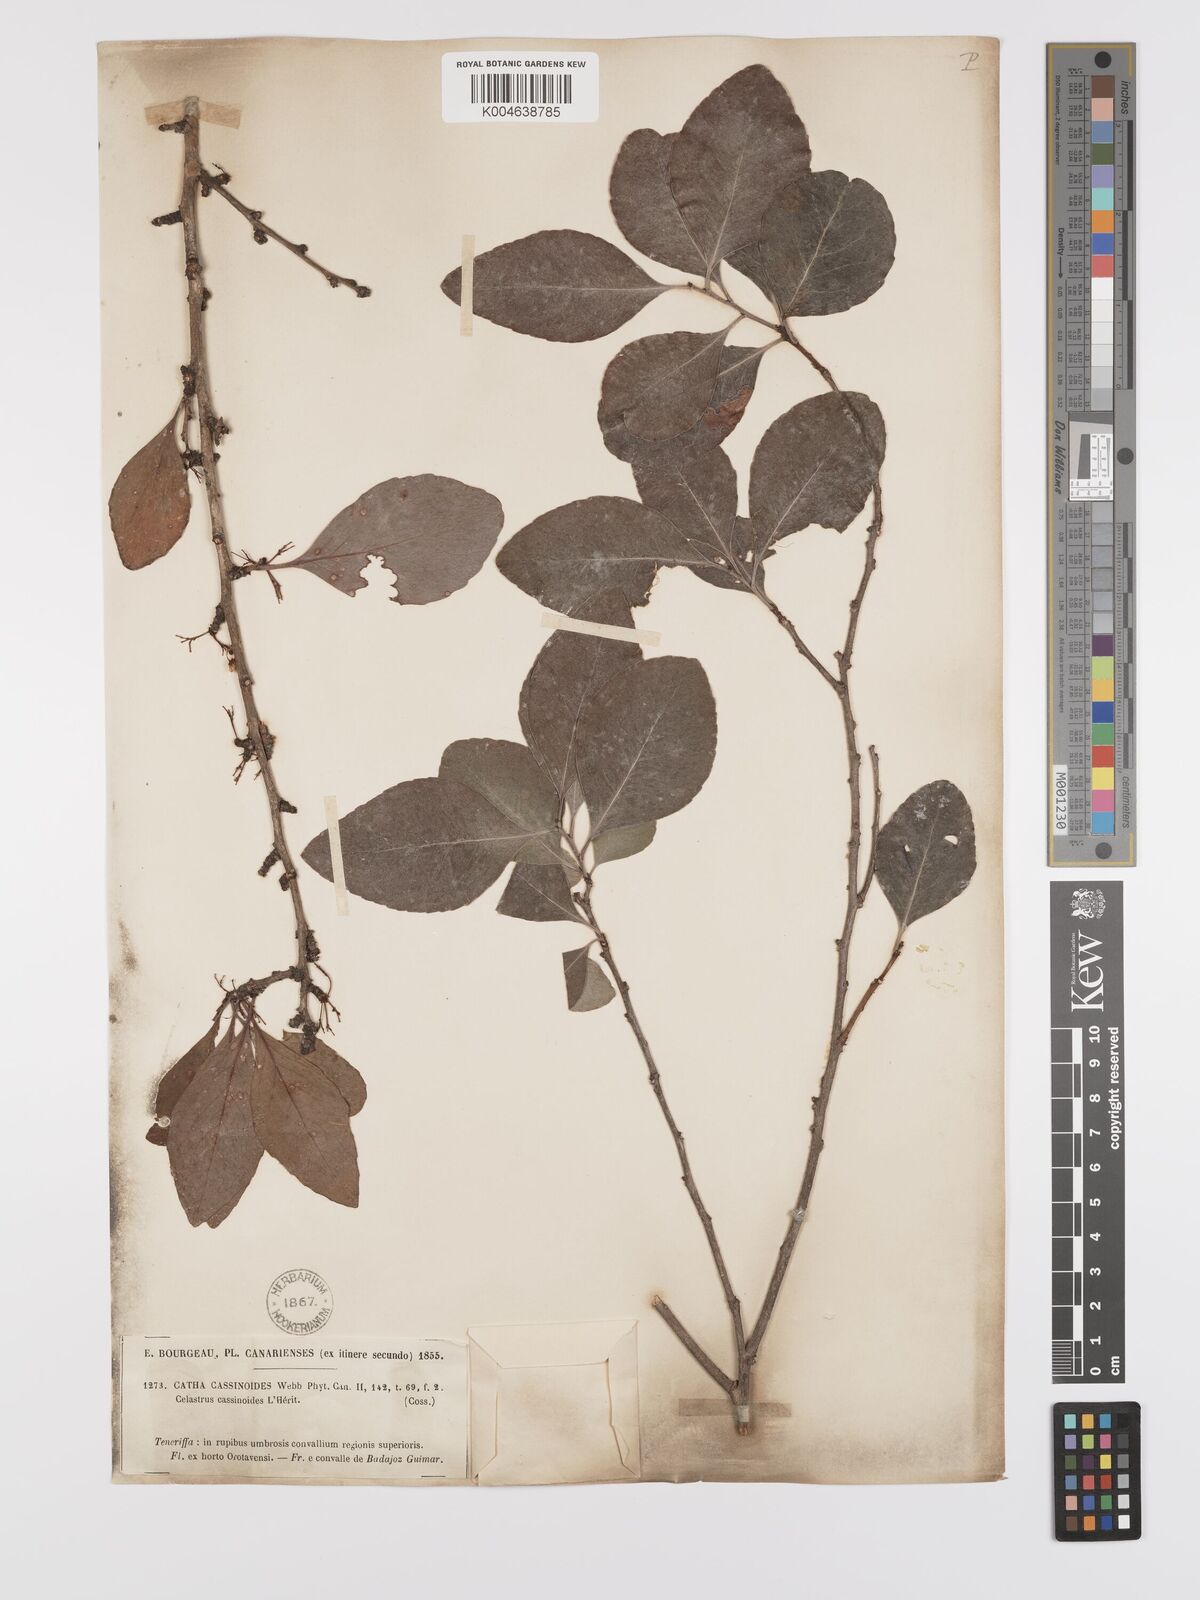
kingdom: Plantae
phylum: Tracheophyta
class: Magnoliopsida
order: Celastrales
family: Celastraceae
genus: Gymnosporia
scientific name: Gymnosporia cassinoides
